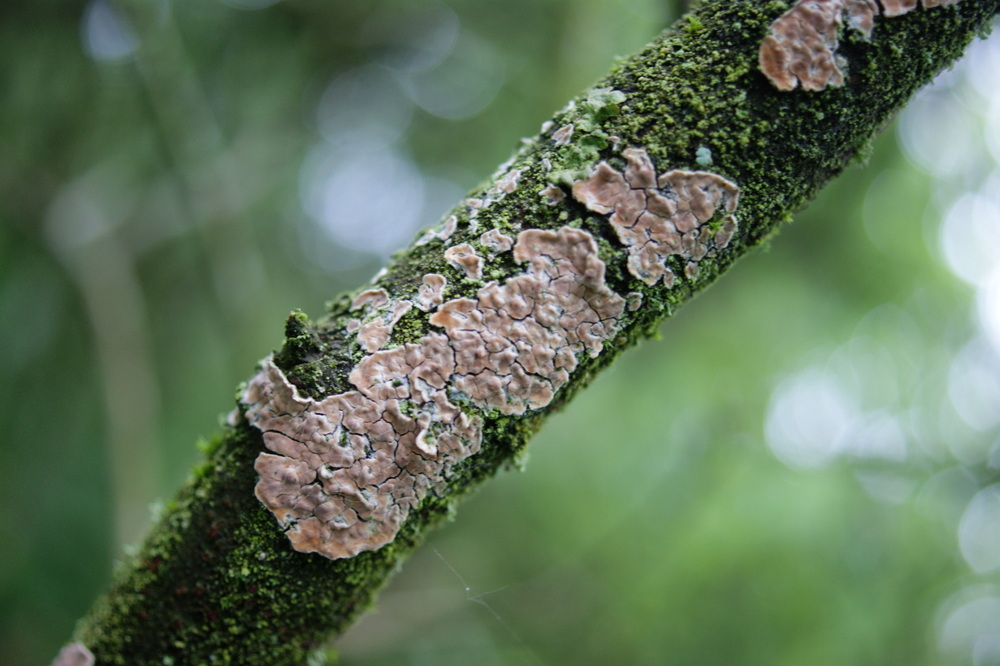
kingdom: Fungi
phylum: Basidiomycota
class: Agaricomycetes
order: Agaricales
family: Physalacriaceae
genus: Cylindrobasidium
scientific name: Cylindrobasidium evolvens
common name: sprækkehinde
